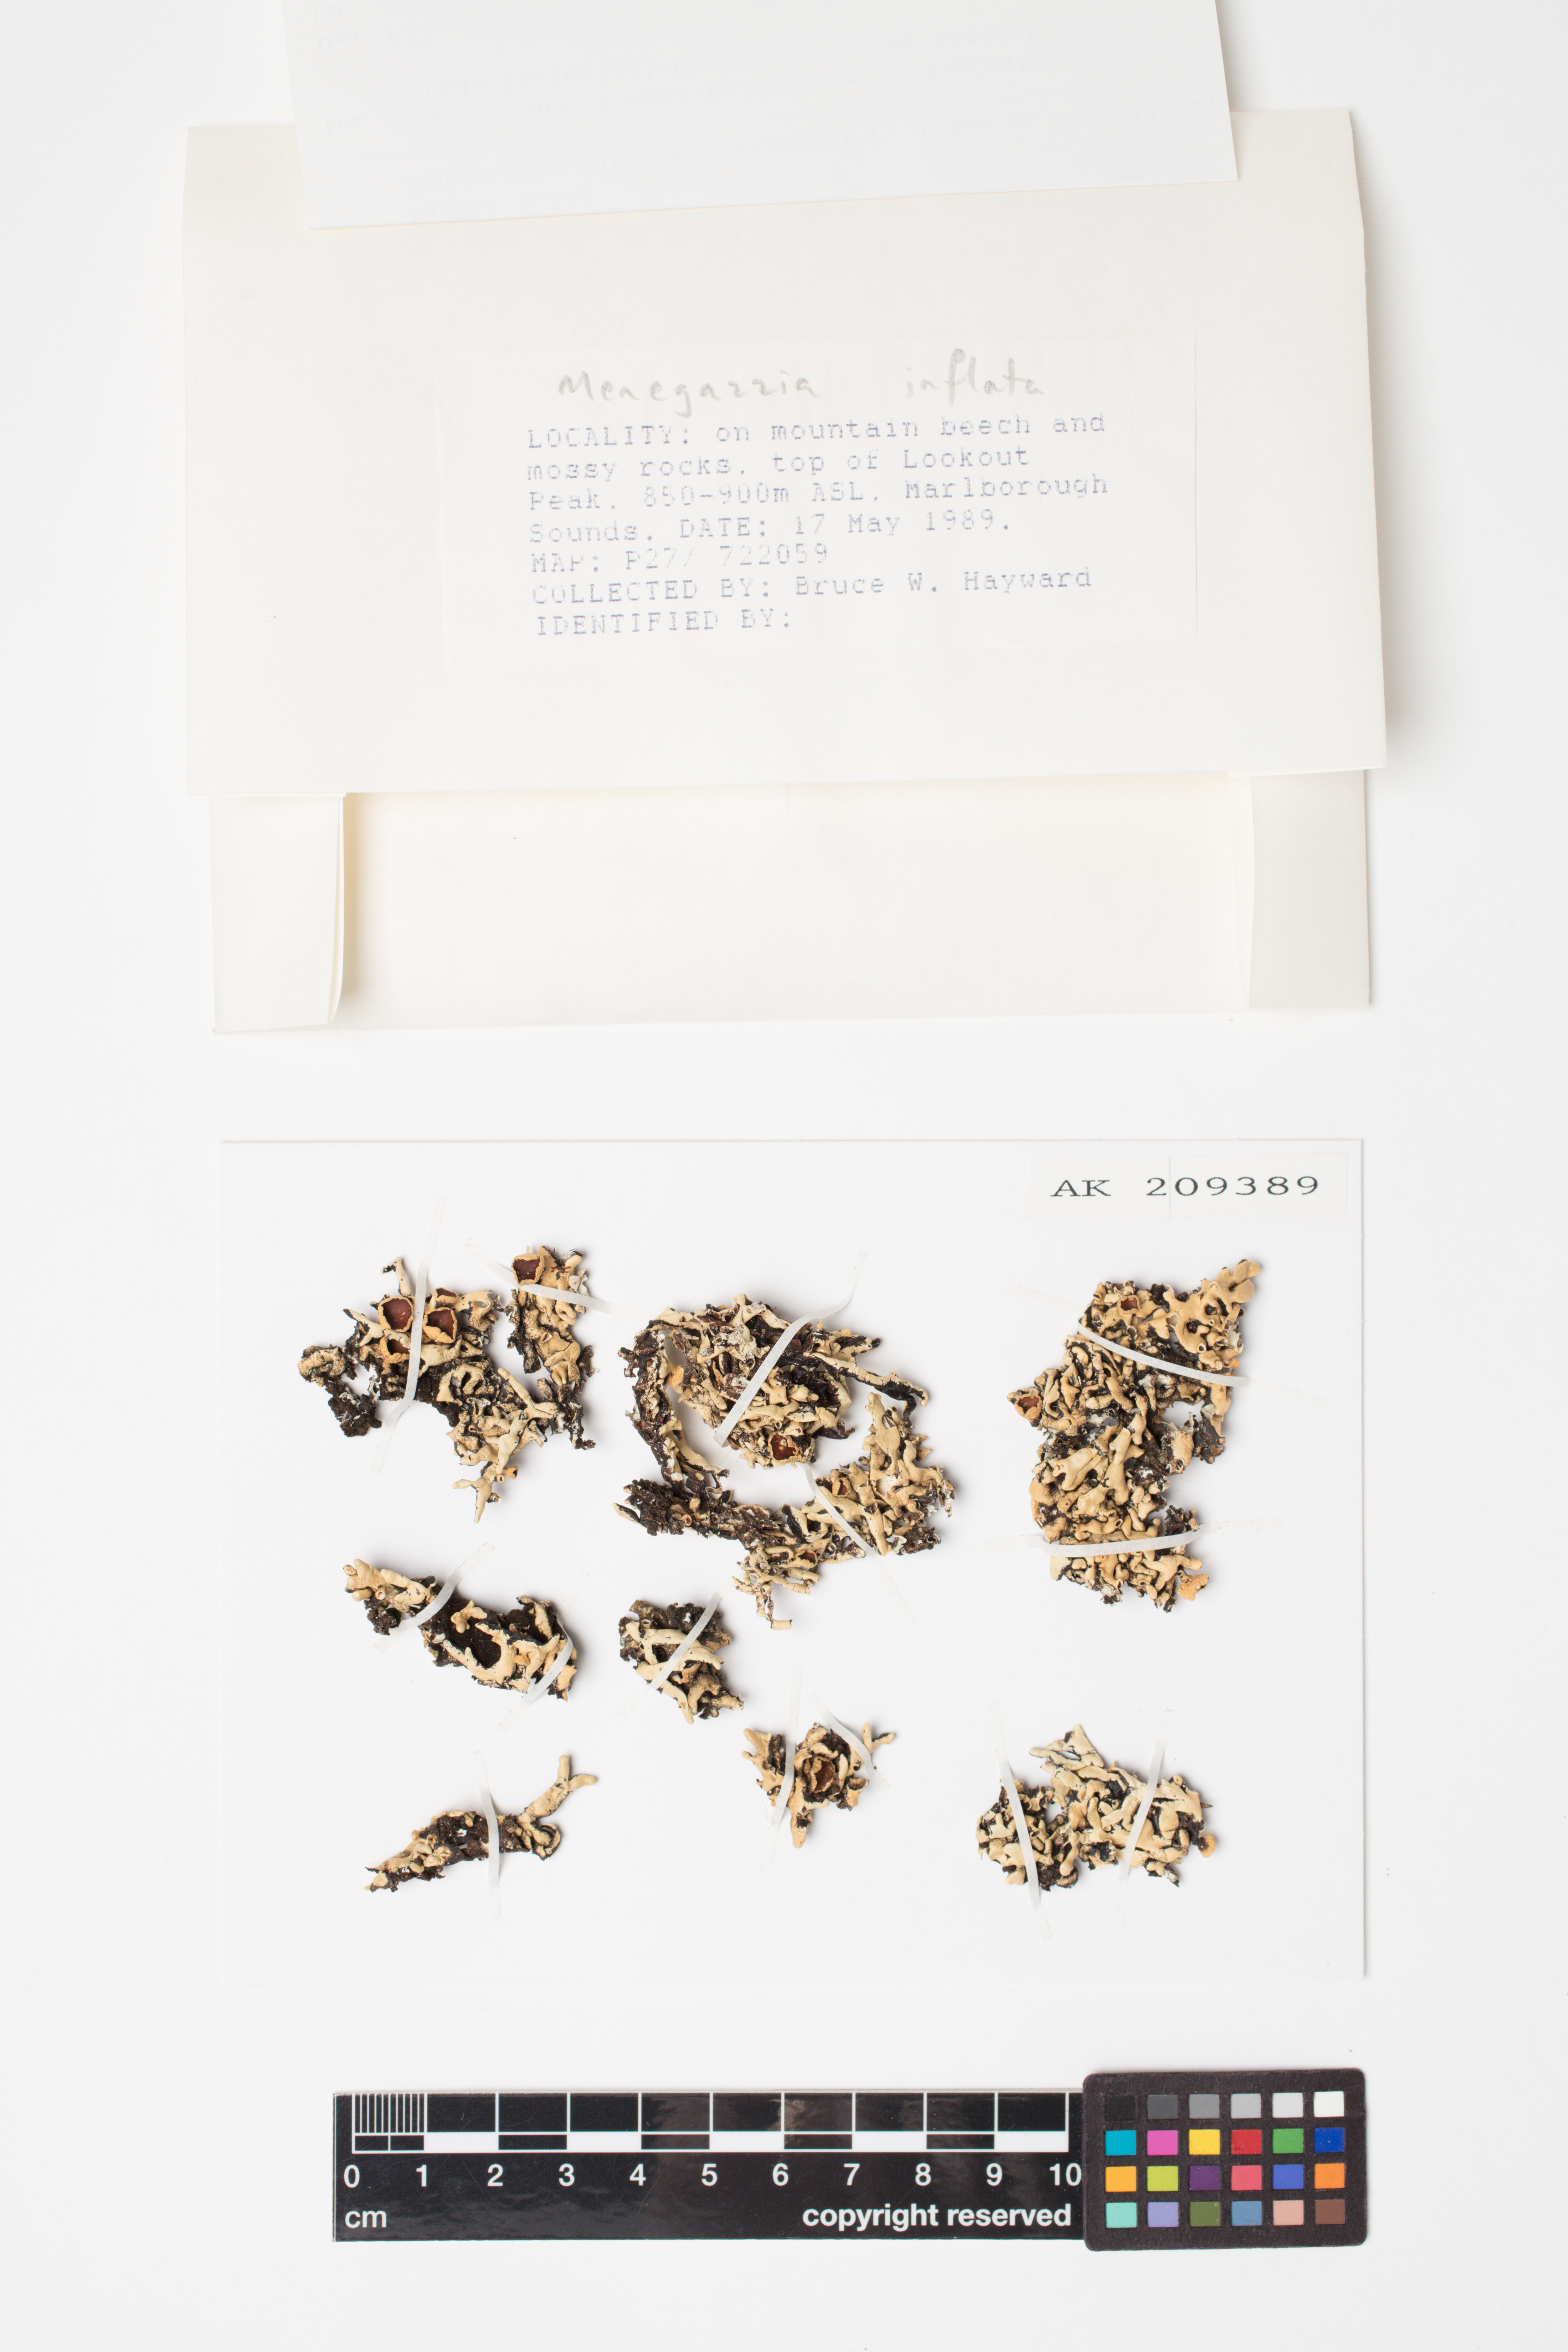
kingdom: Fungi
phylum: Ascomycota
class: Lecanoromycetes
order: Lecanorales
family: Parmeliaceae
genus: Menegazzia
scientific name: Menegazzia
